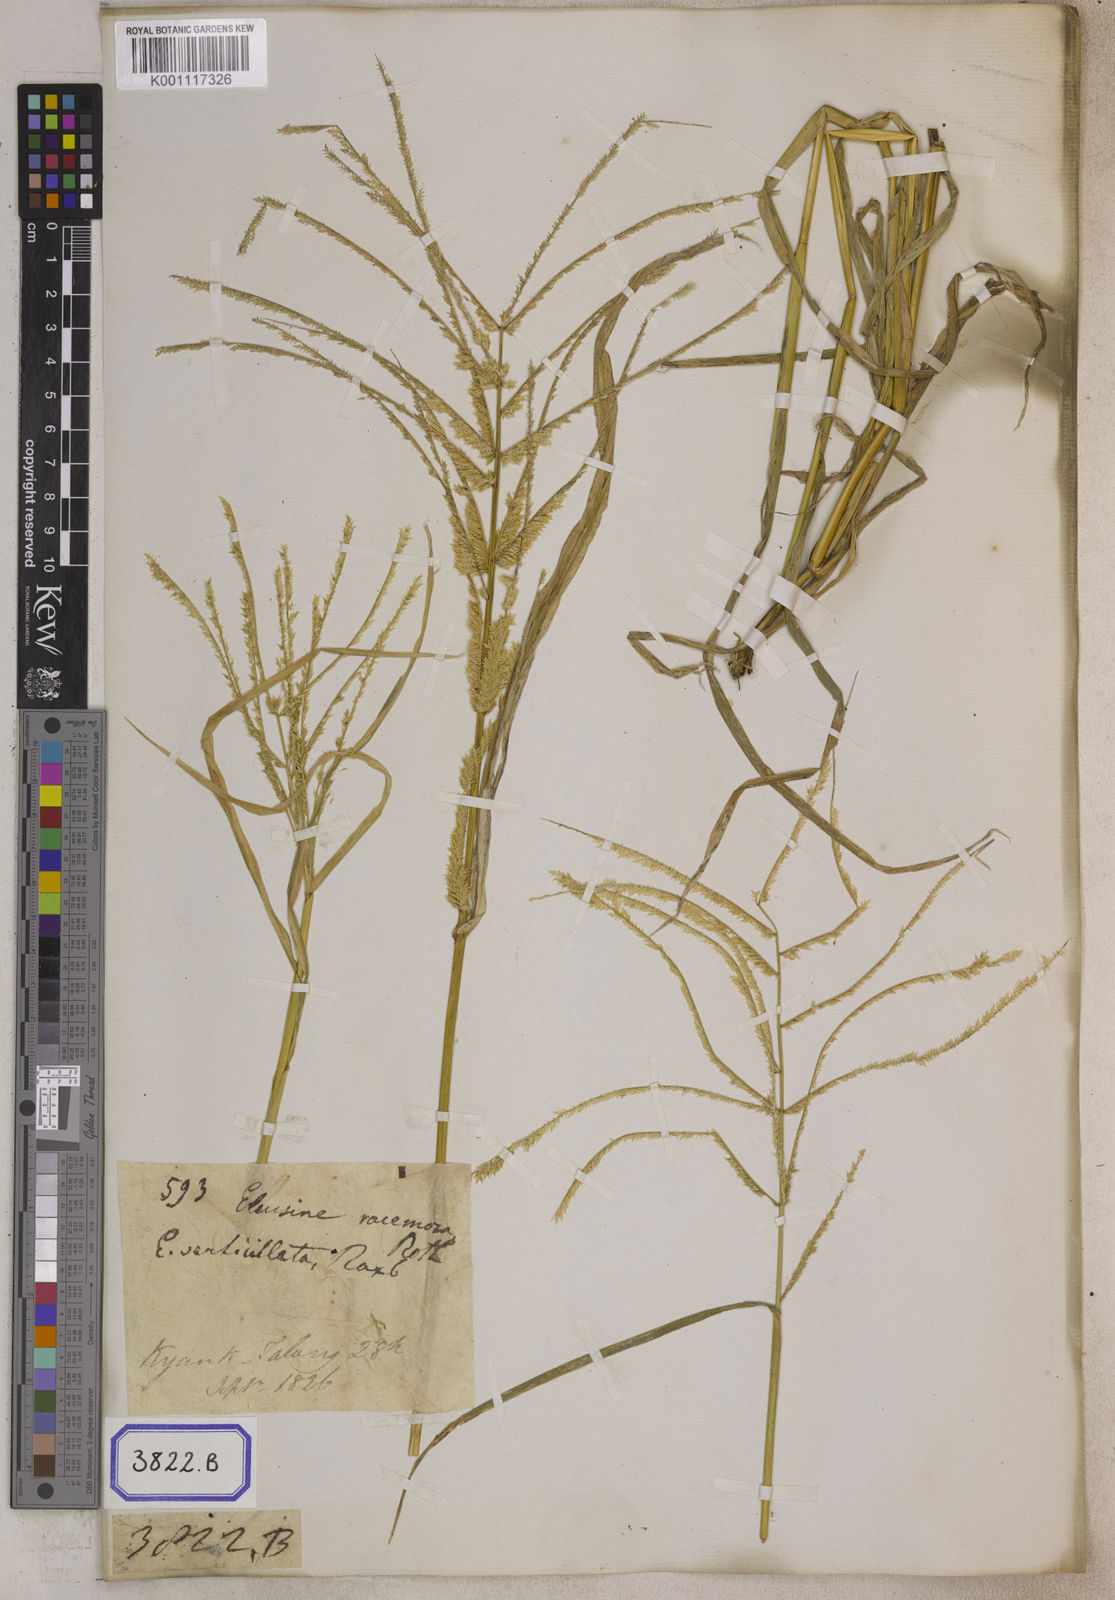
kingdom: Plantae
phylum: Tracheophyta
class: Liliopsida
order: Poales
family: Poaceae
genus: Eragrostis
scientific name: Eragrostis
